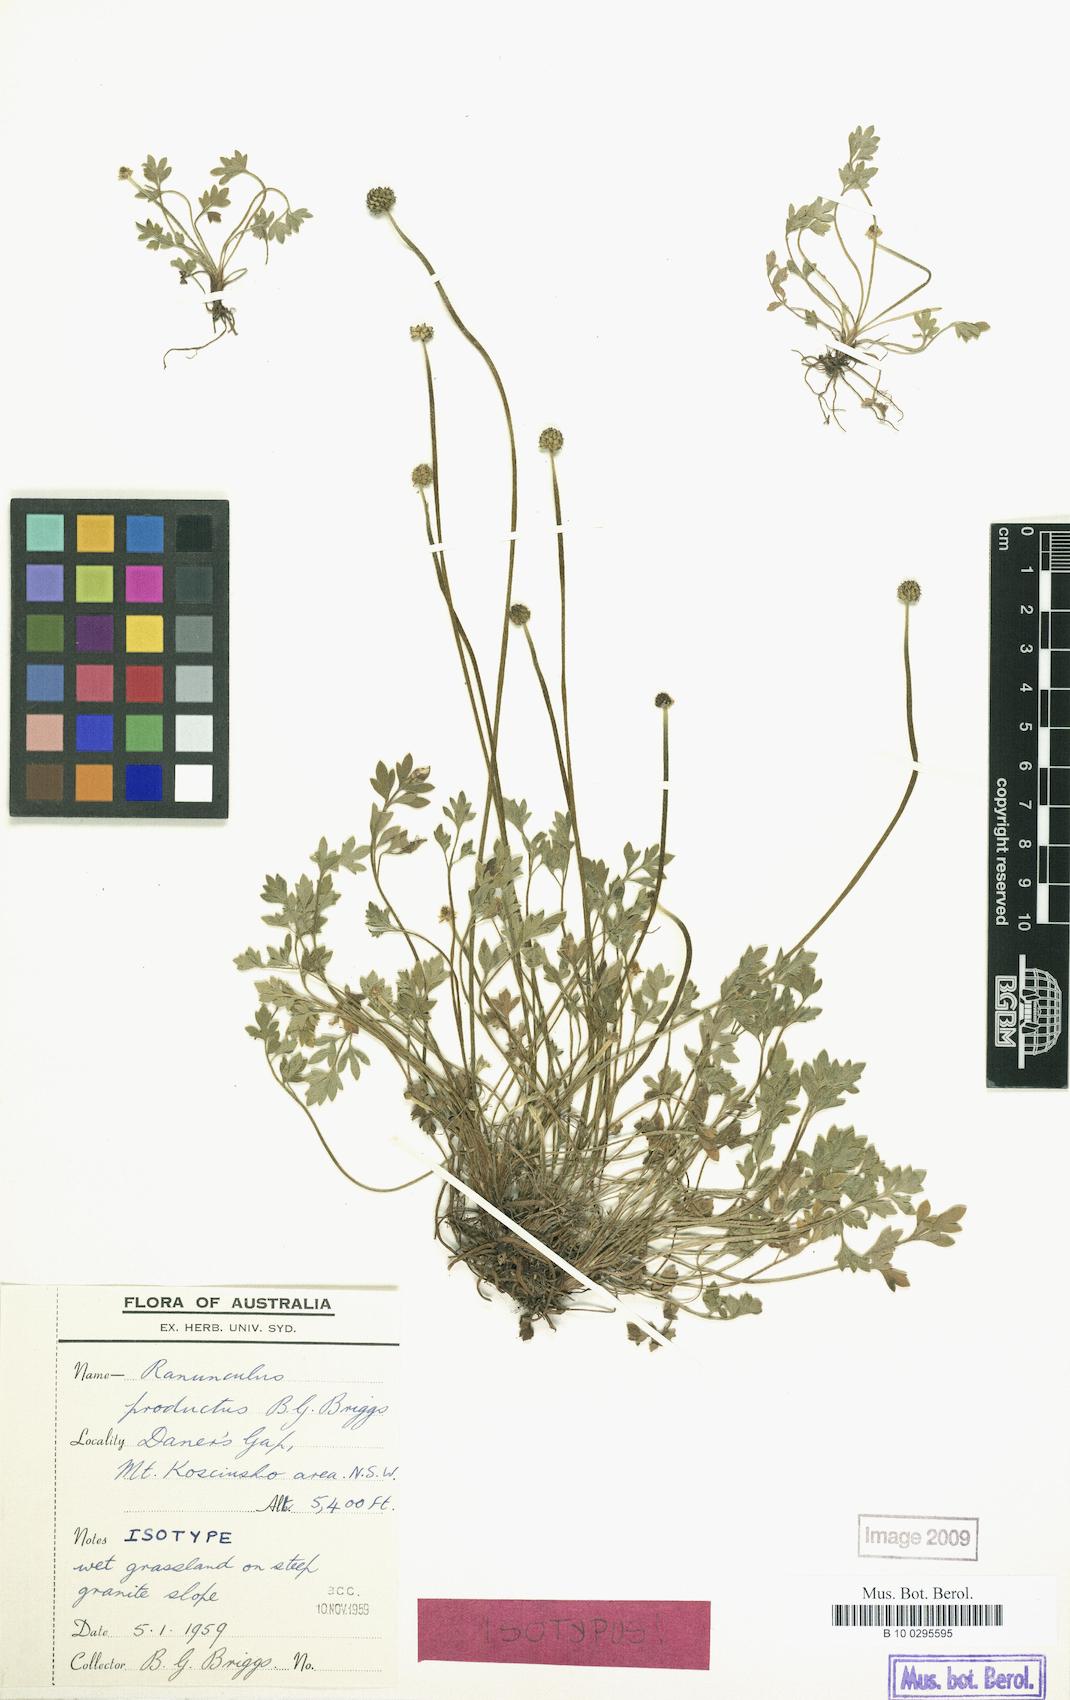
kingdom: Plantae
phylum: Tracheophyta
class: Magnoliopsida
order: Ranunculales
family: Ranunculaceae
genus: Ranunculus
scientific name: Ranunculus productus
